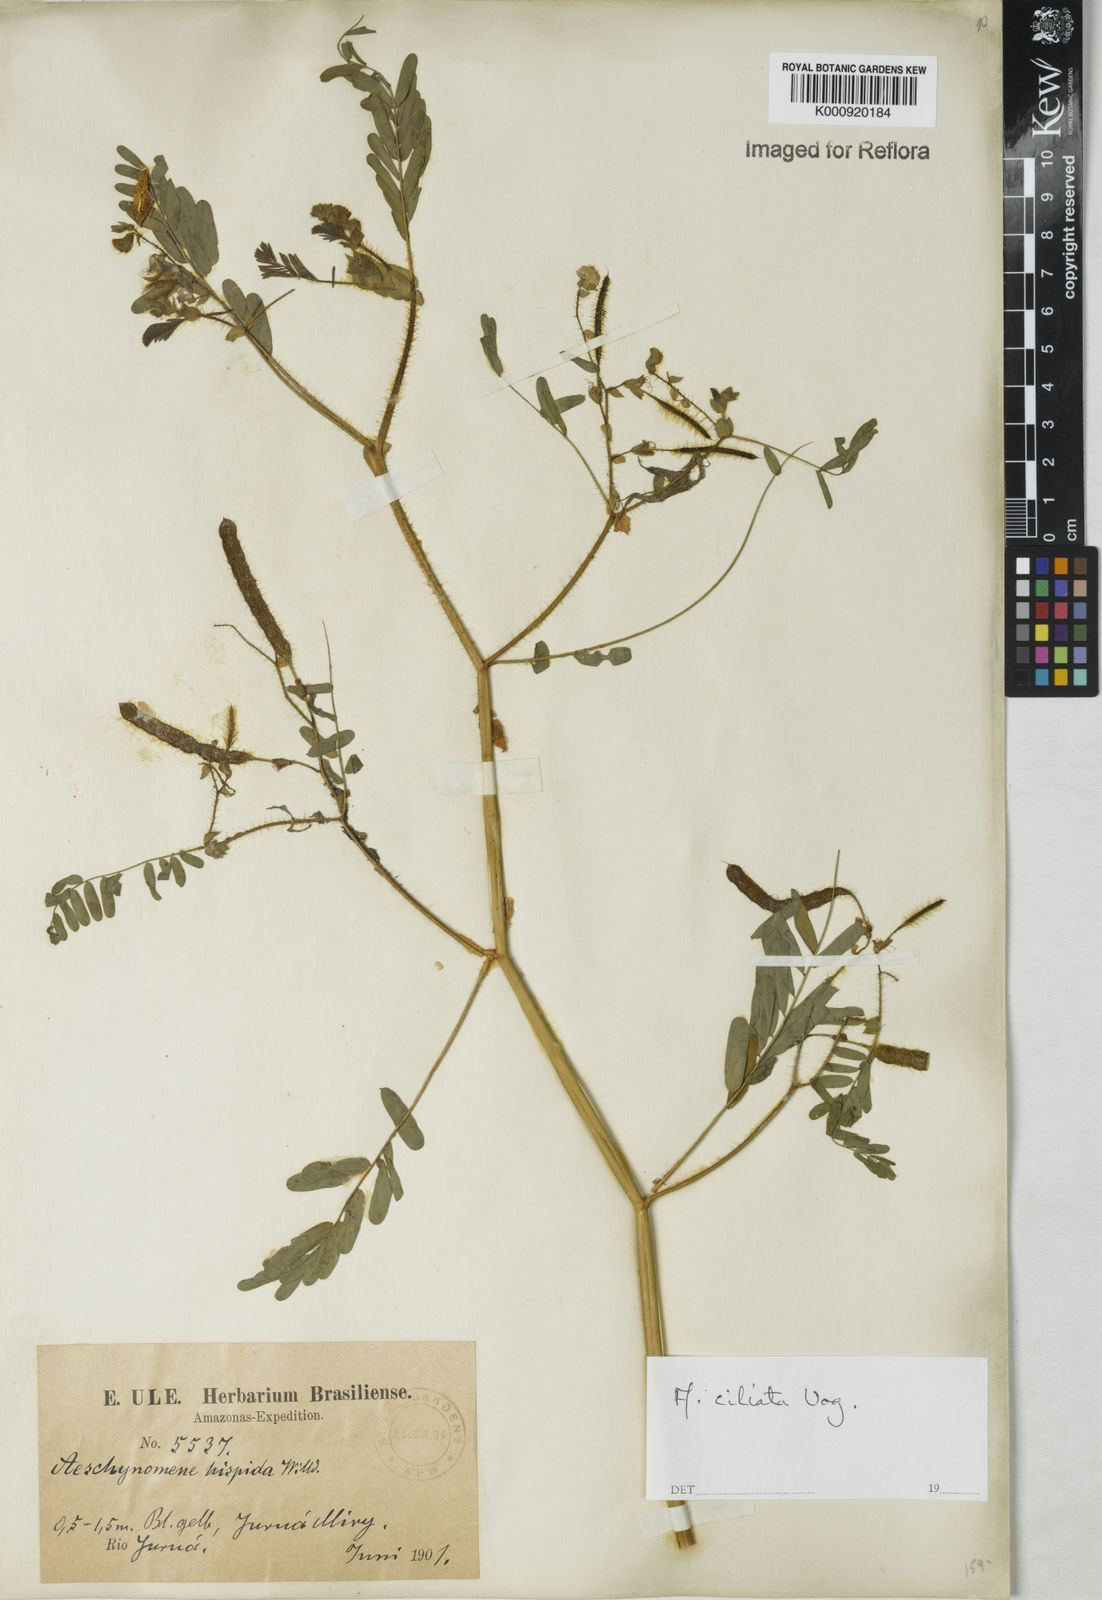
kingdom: Plantae
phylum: Tracheophyta
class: Magnoliopsida
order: Fabales
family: Fabaceae
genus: Aeschynomene
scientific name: Aeschynomene ciliata
